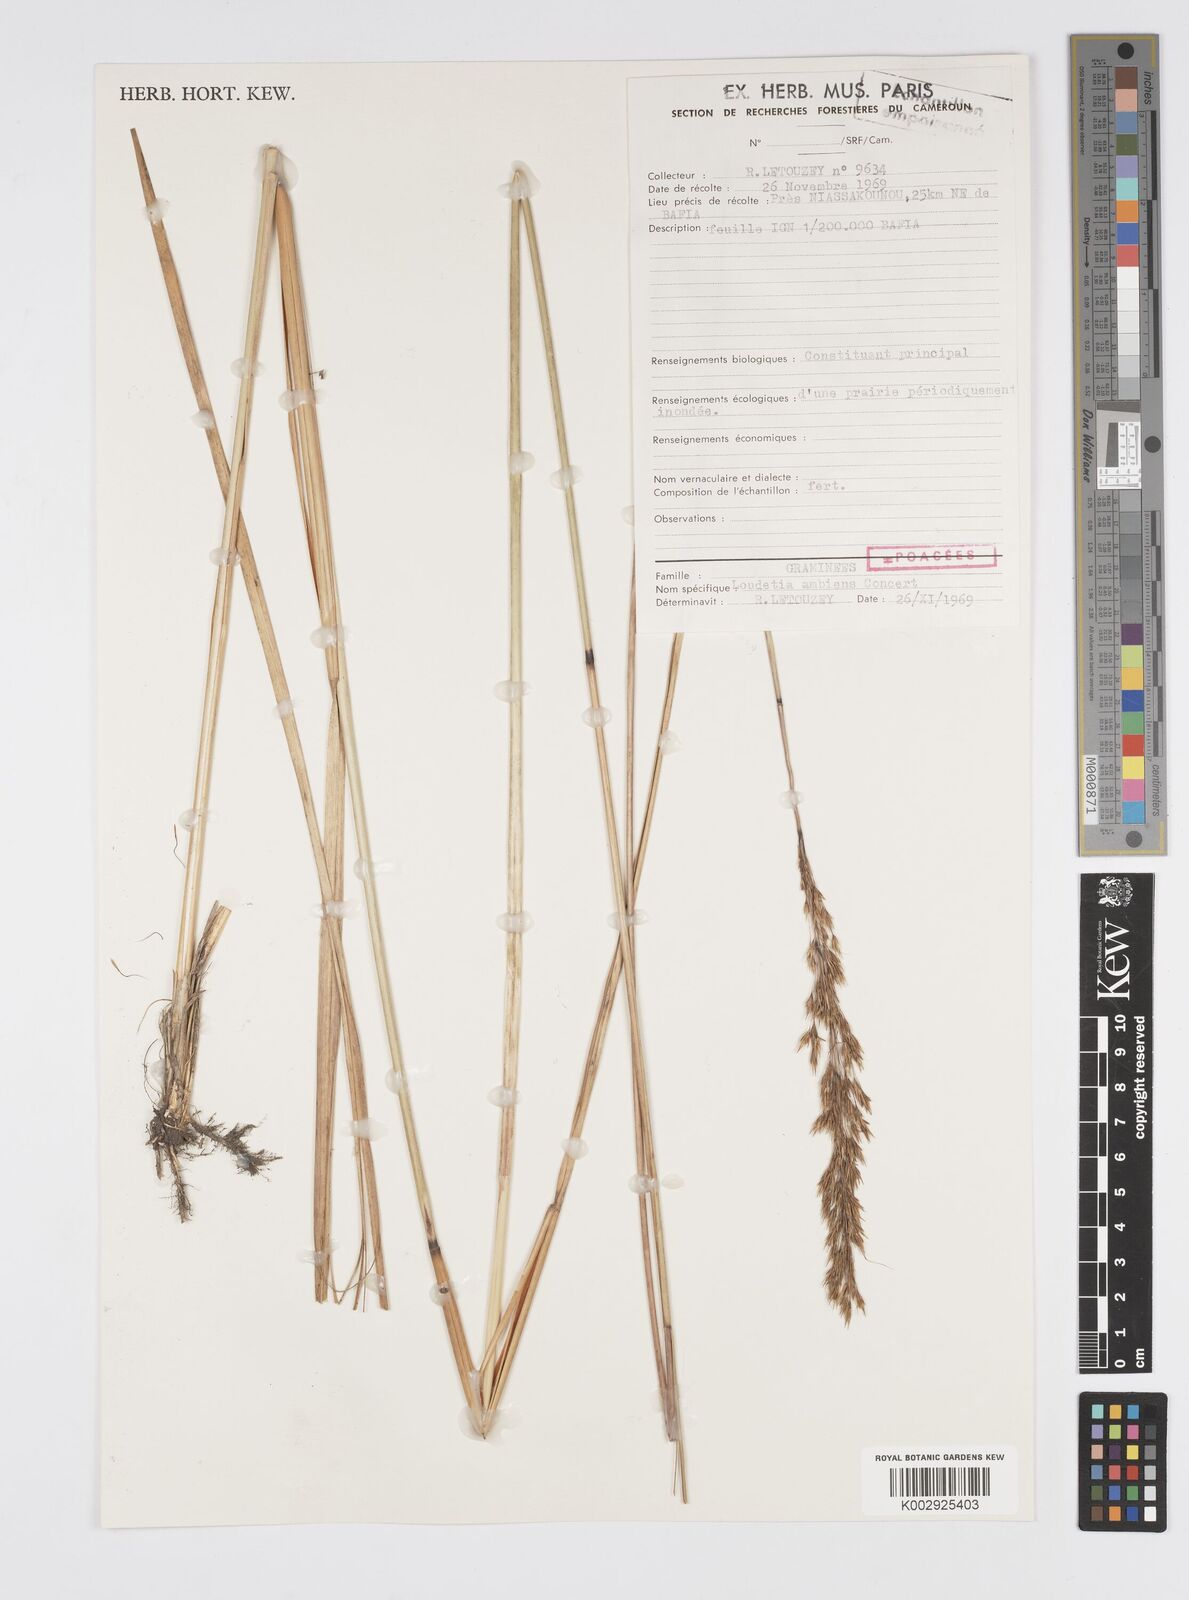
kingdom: Plantae
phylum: Tracheophyta
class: Liliopsida
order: Poales
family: Poaceae
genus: Loudetiopsis
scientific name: Loudetiopsis ambiens
